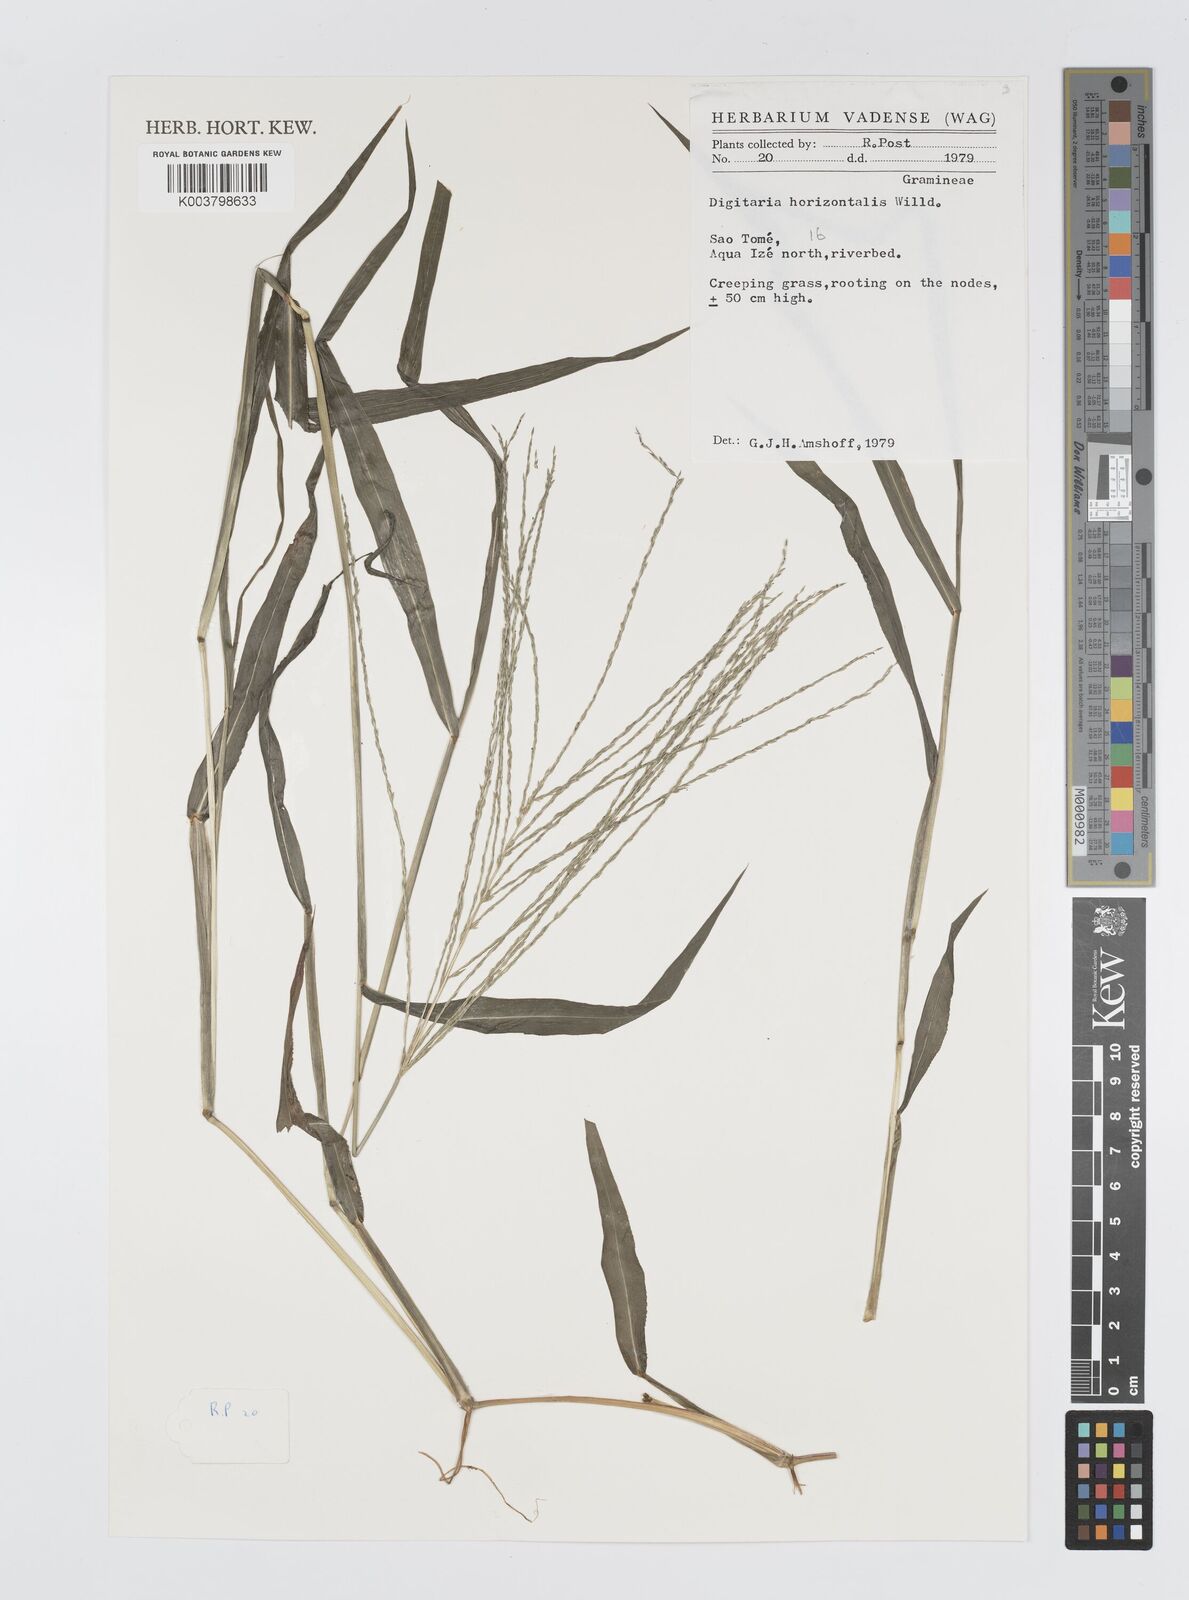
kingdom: Plantae
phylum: Tracheophyta
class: Liliopsida
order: Poales
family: Poaceae
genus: Digitaria
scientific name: Digitaria horizontalis
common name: Jamaican crabgrass
